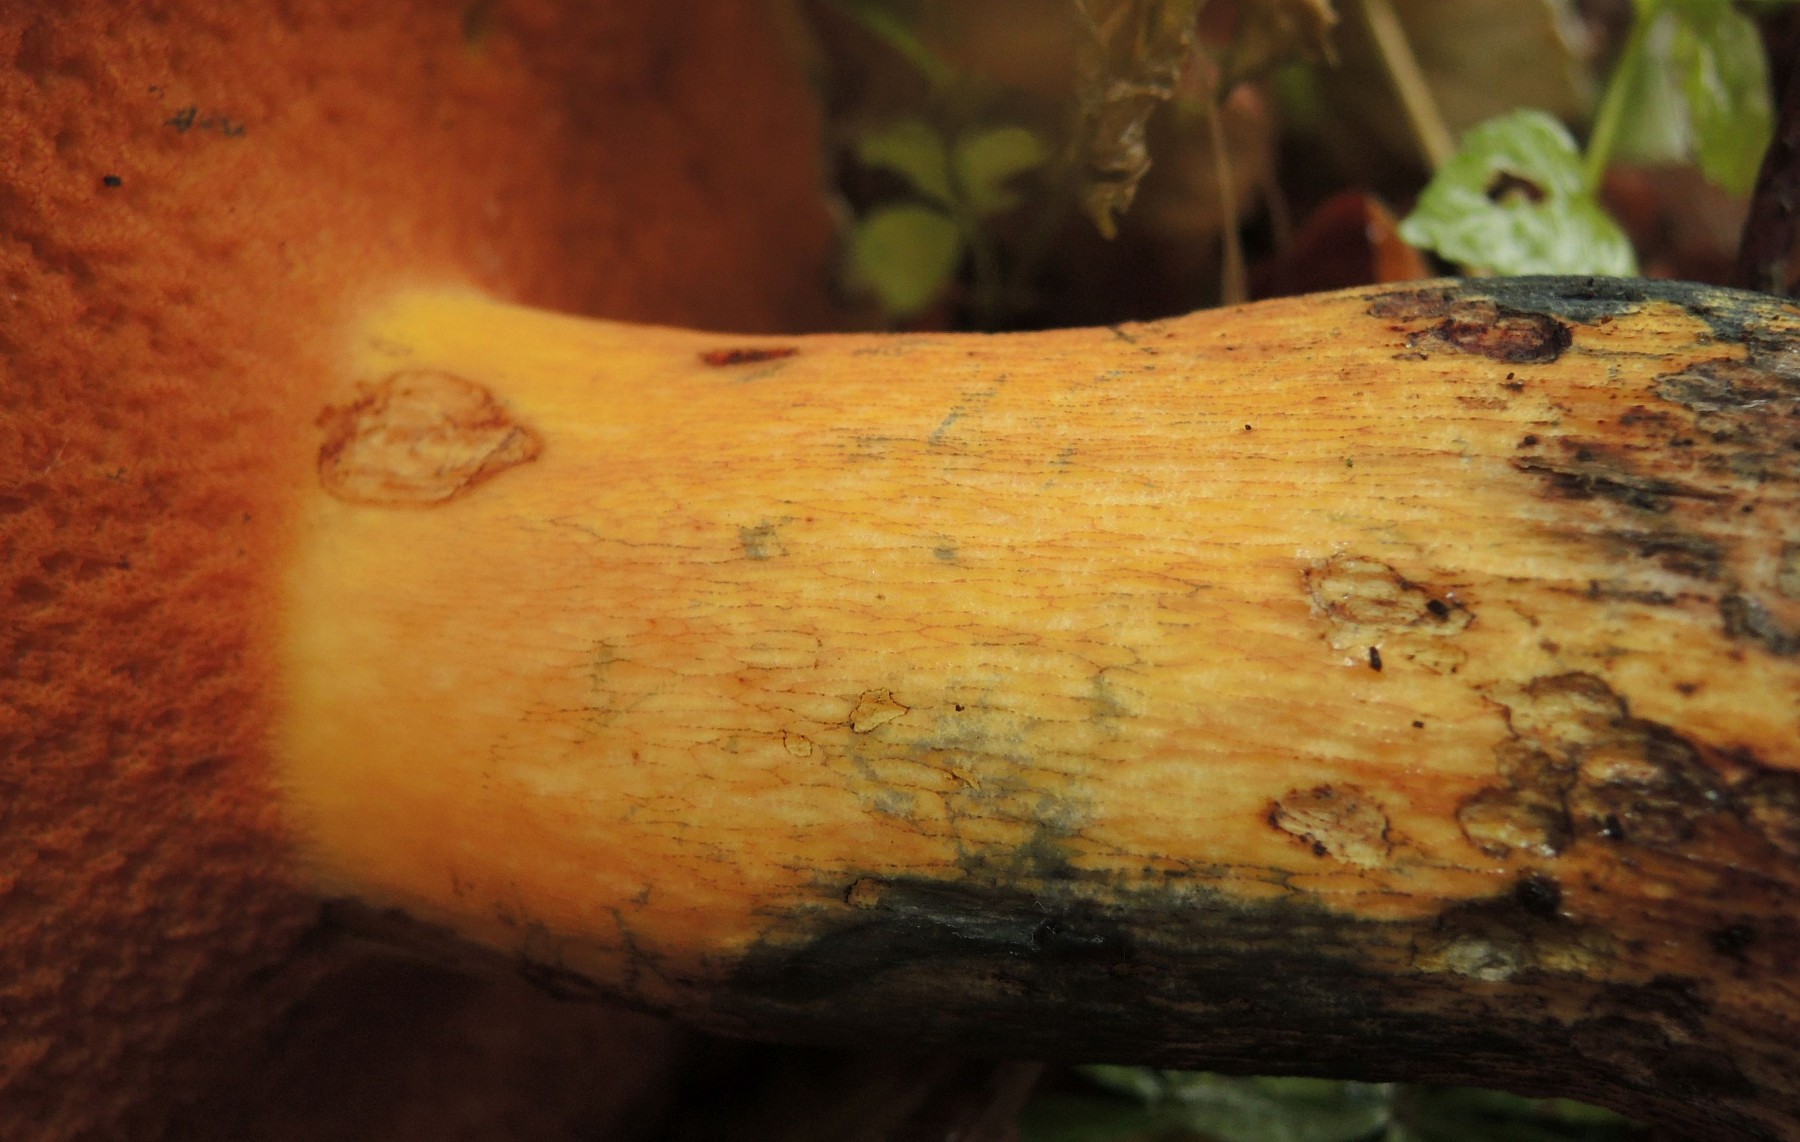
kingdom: Fungi
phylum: Basidiomycota
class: Agaricomycetes
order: Boletales
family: Boletaceae
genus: Suillellus
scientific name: Suillellus mendax
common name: joker-indigorørhat
